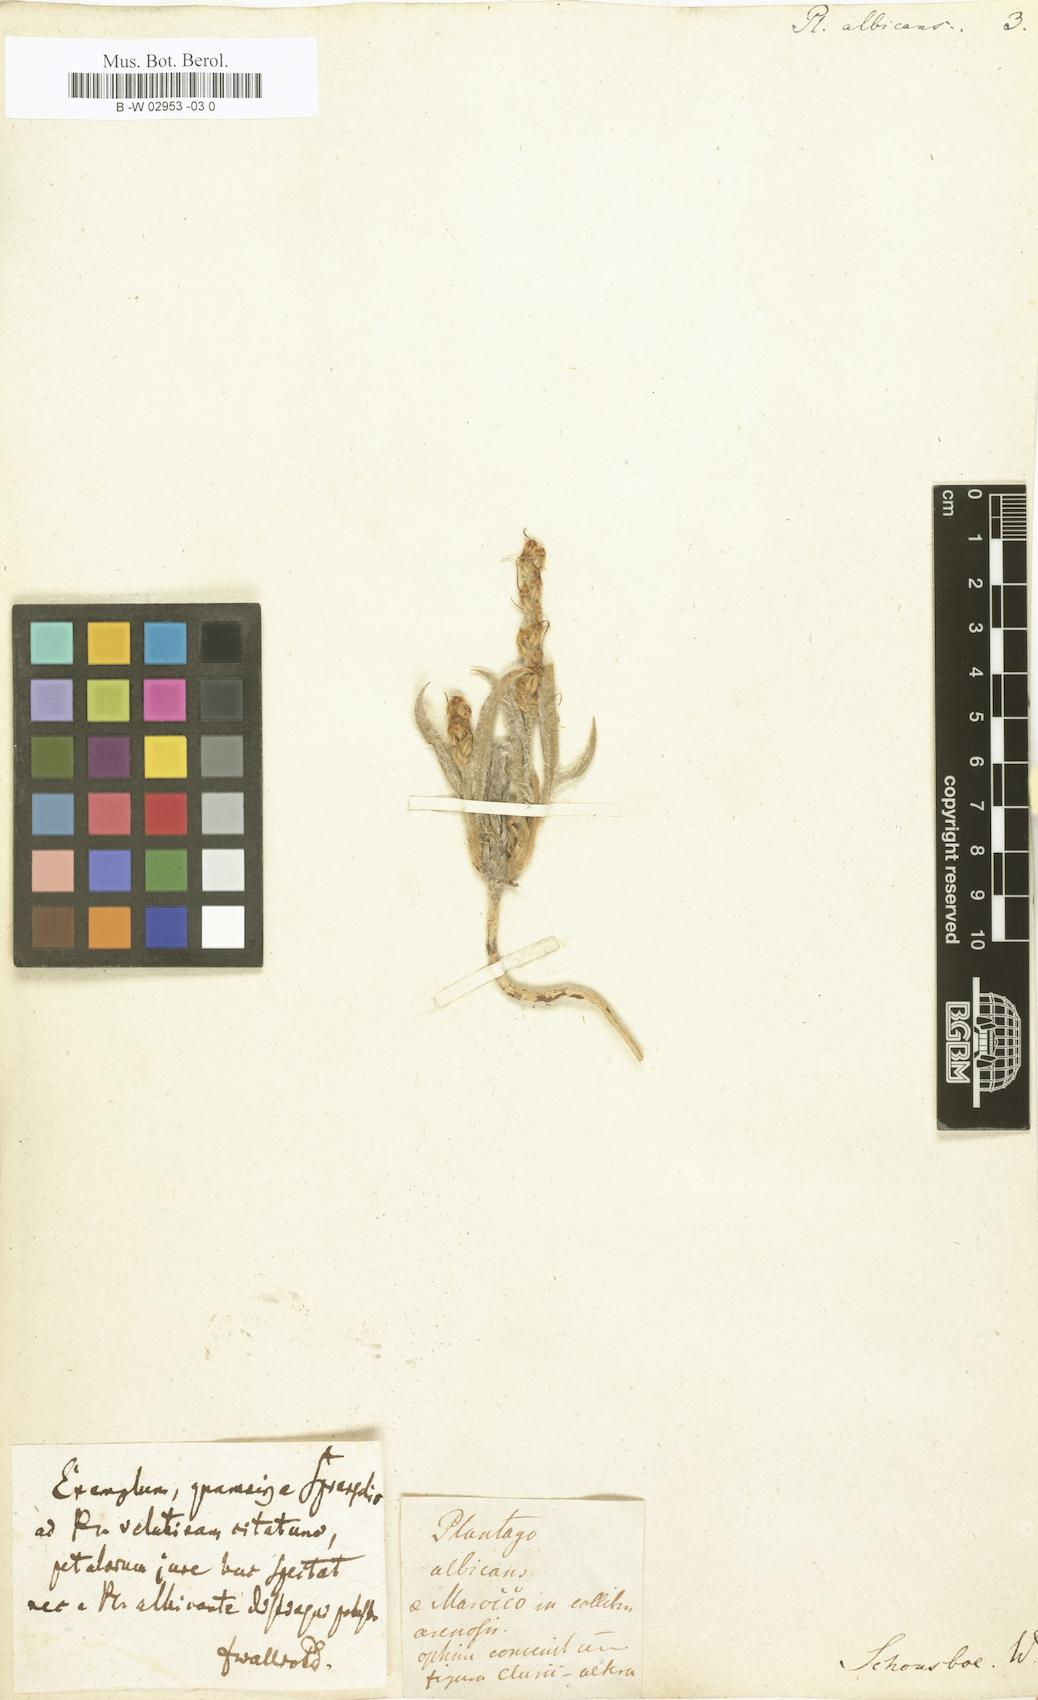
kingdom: Plantae
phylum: Tracheophyta
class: Magnoliopsida
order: Lamiales
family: Plantaginaceae
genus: Plantago
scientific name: Plantago albicans
